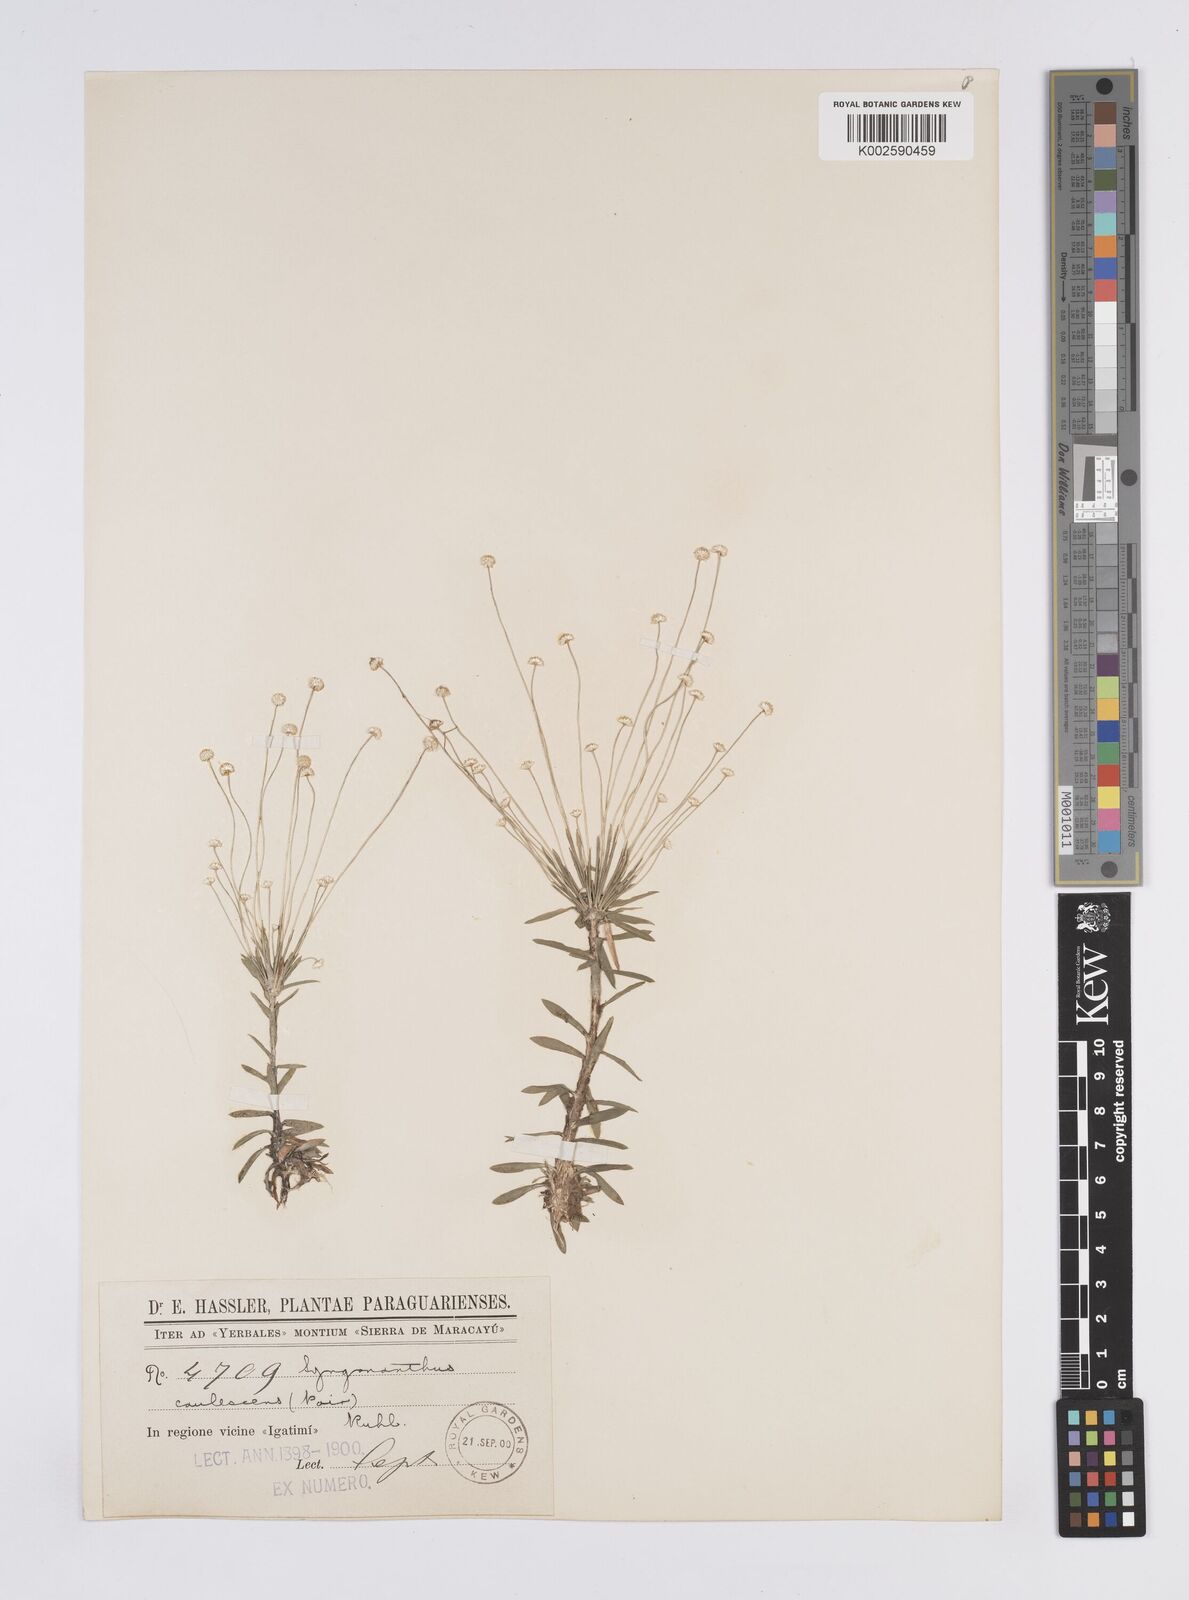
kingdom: Plantae
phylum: Tracheophyta
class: Liliopsida
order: Poales
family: Eriocaulaceae
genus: Syngonanthus
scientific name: Syngonanthus caulescens
